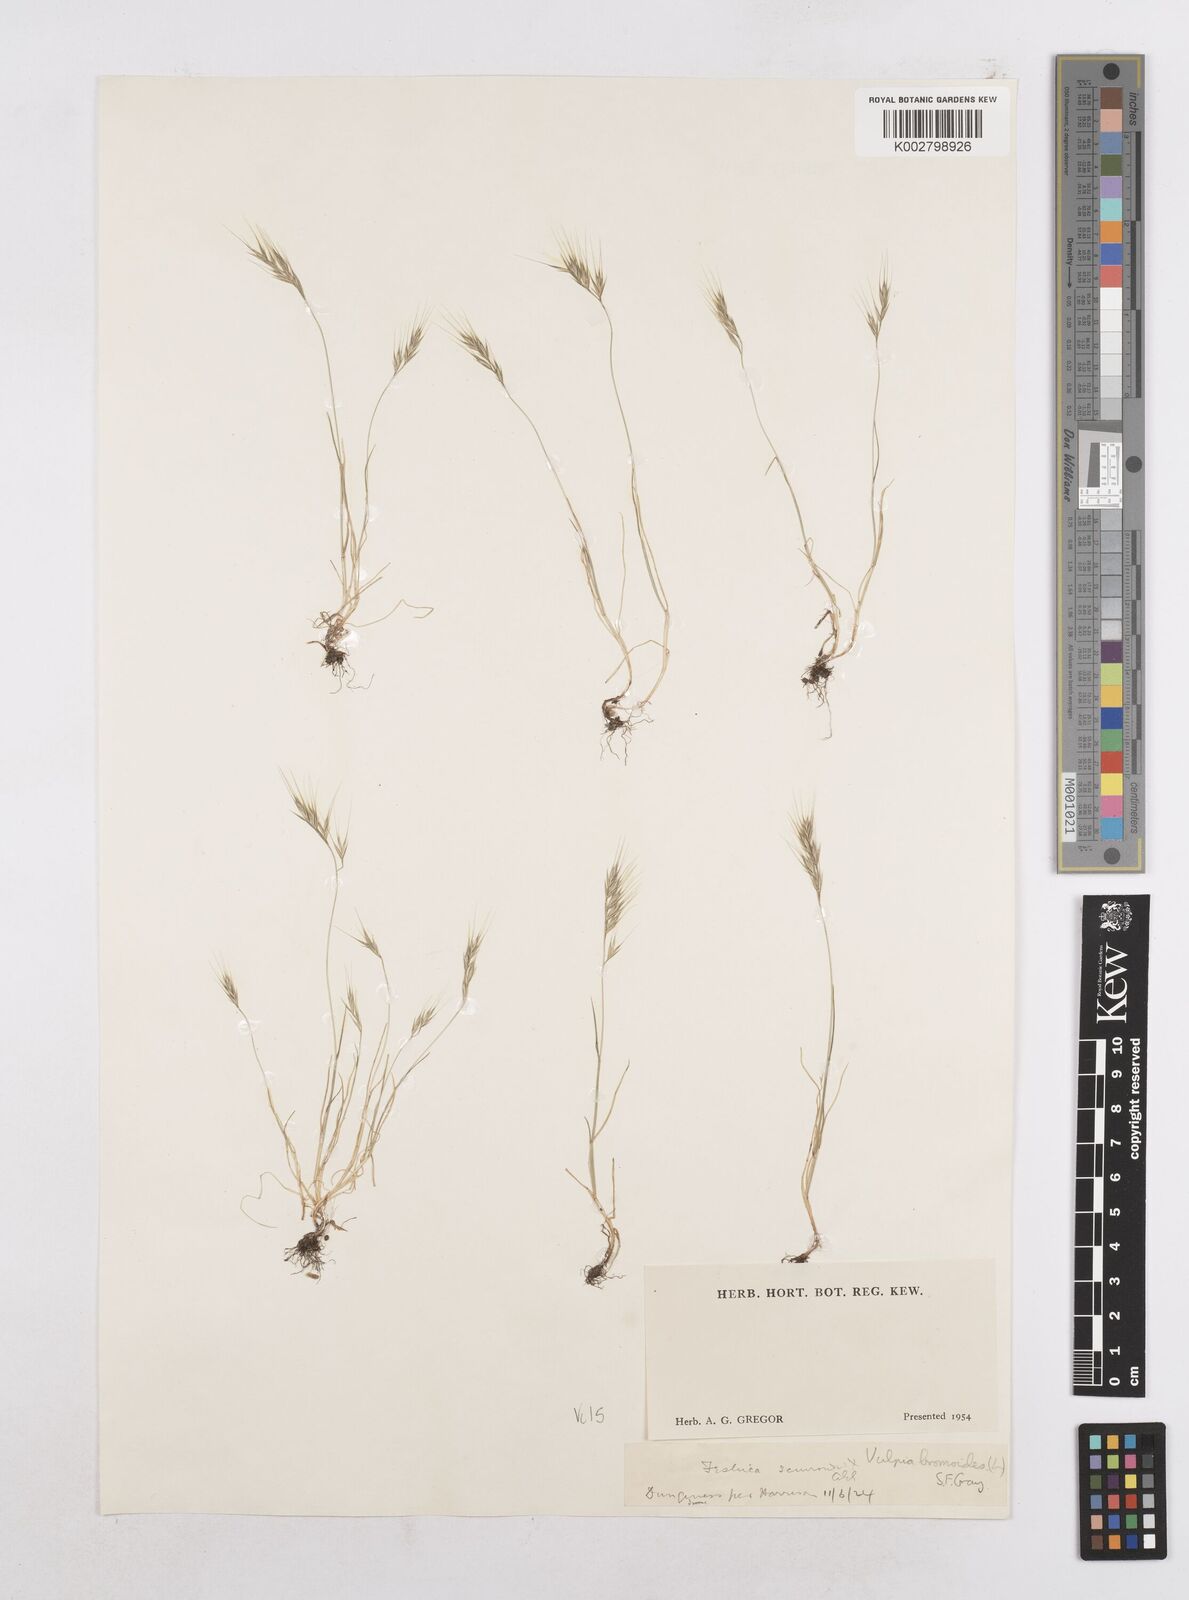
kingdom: Plantae
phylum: Tracheophyta
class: Liliopsida
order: Poales
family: Poaceae
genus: Festuca
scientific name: Festuca bromoides
